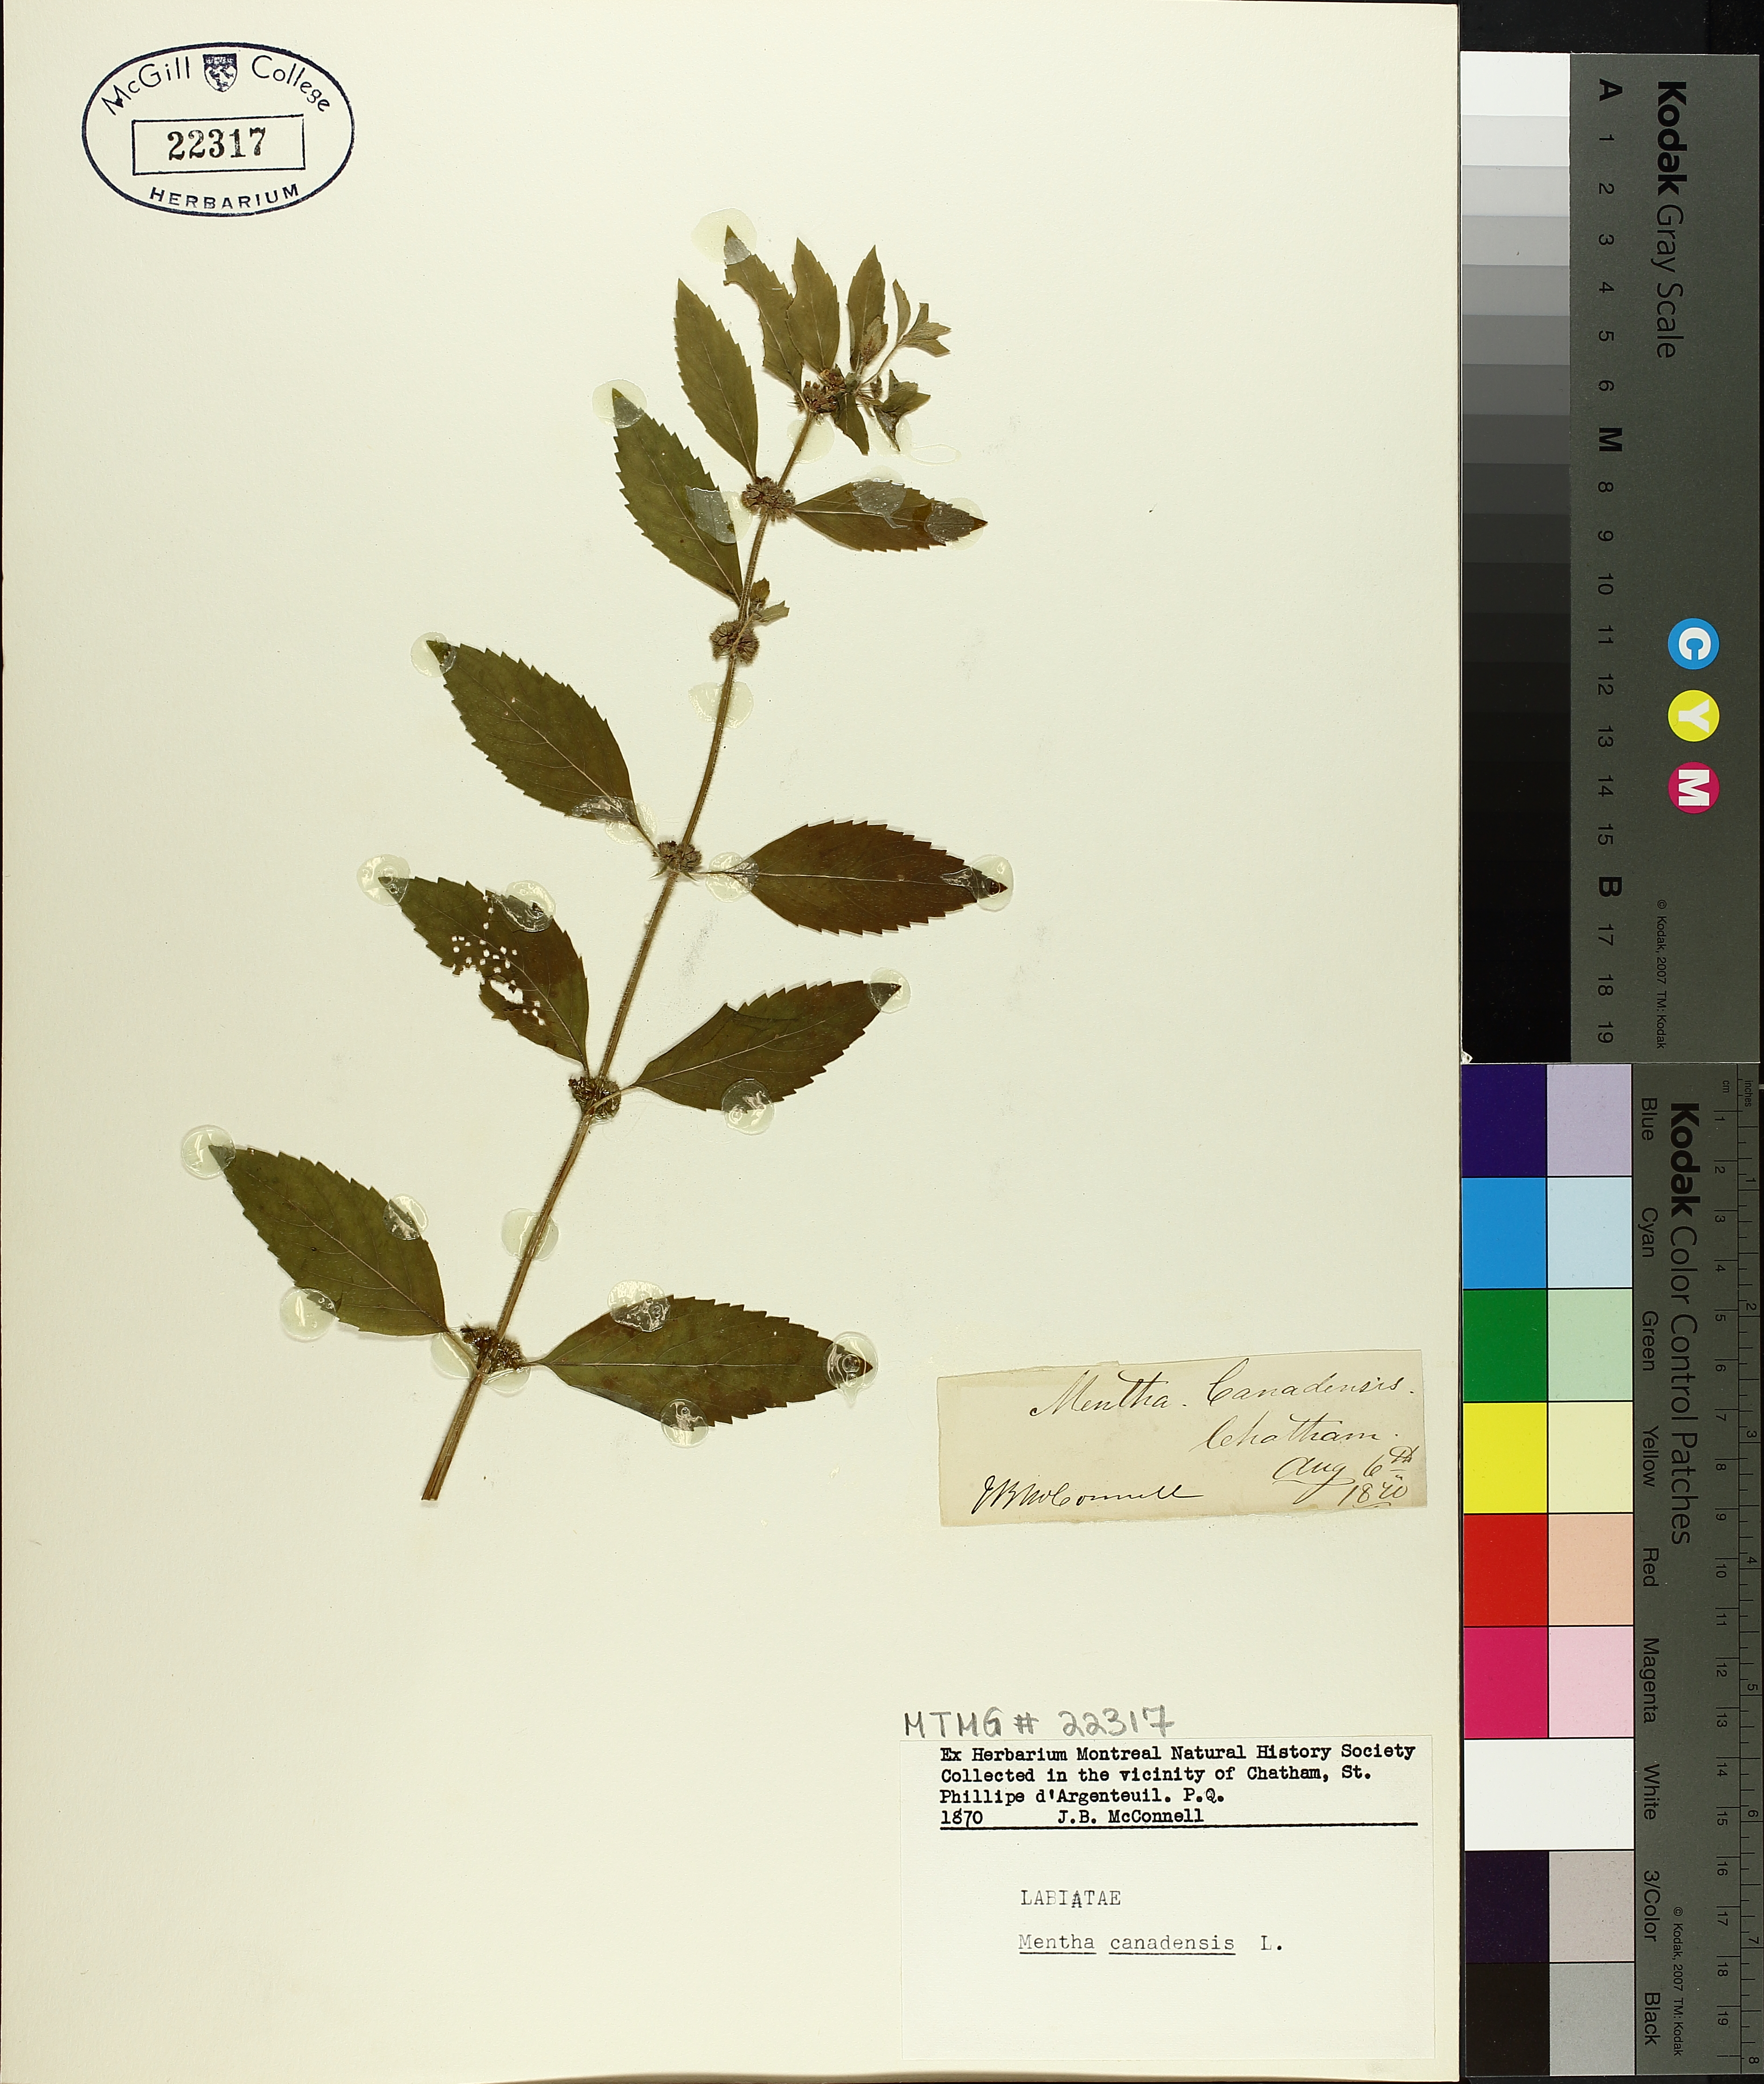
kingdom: Plantae
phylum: Tracheophyta
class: Magnoliopsida
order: Lamiales
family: Lamiaceae
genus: Mentha
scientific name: Mentha canadensis
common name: American corn mint
